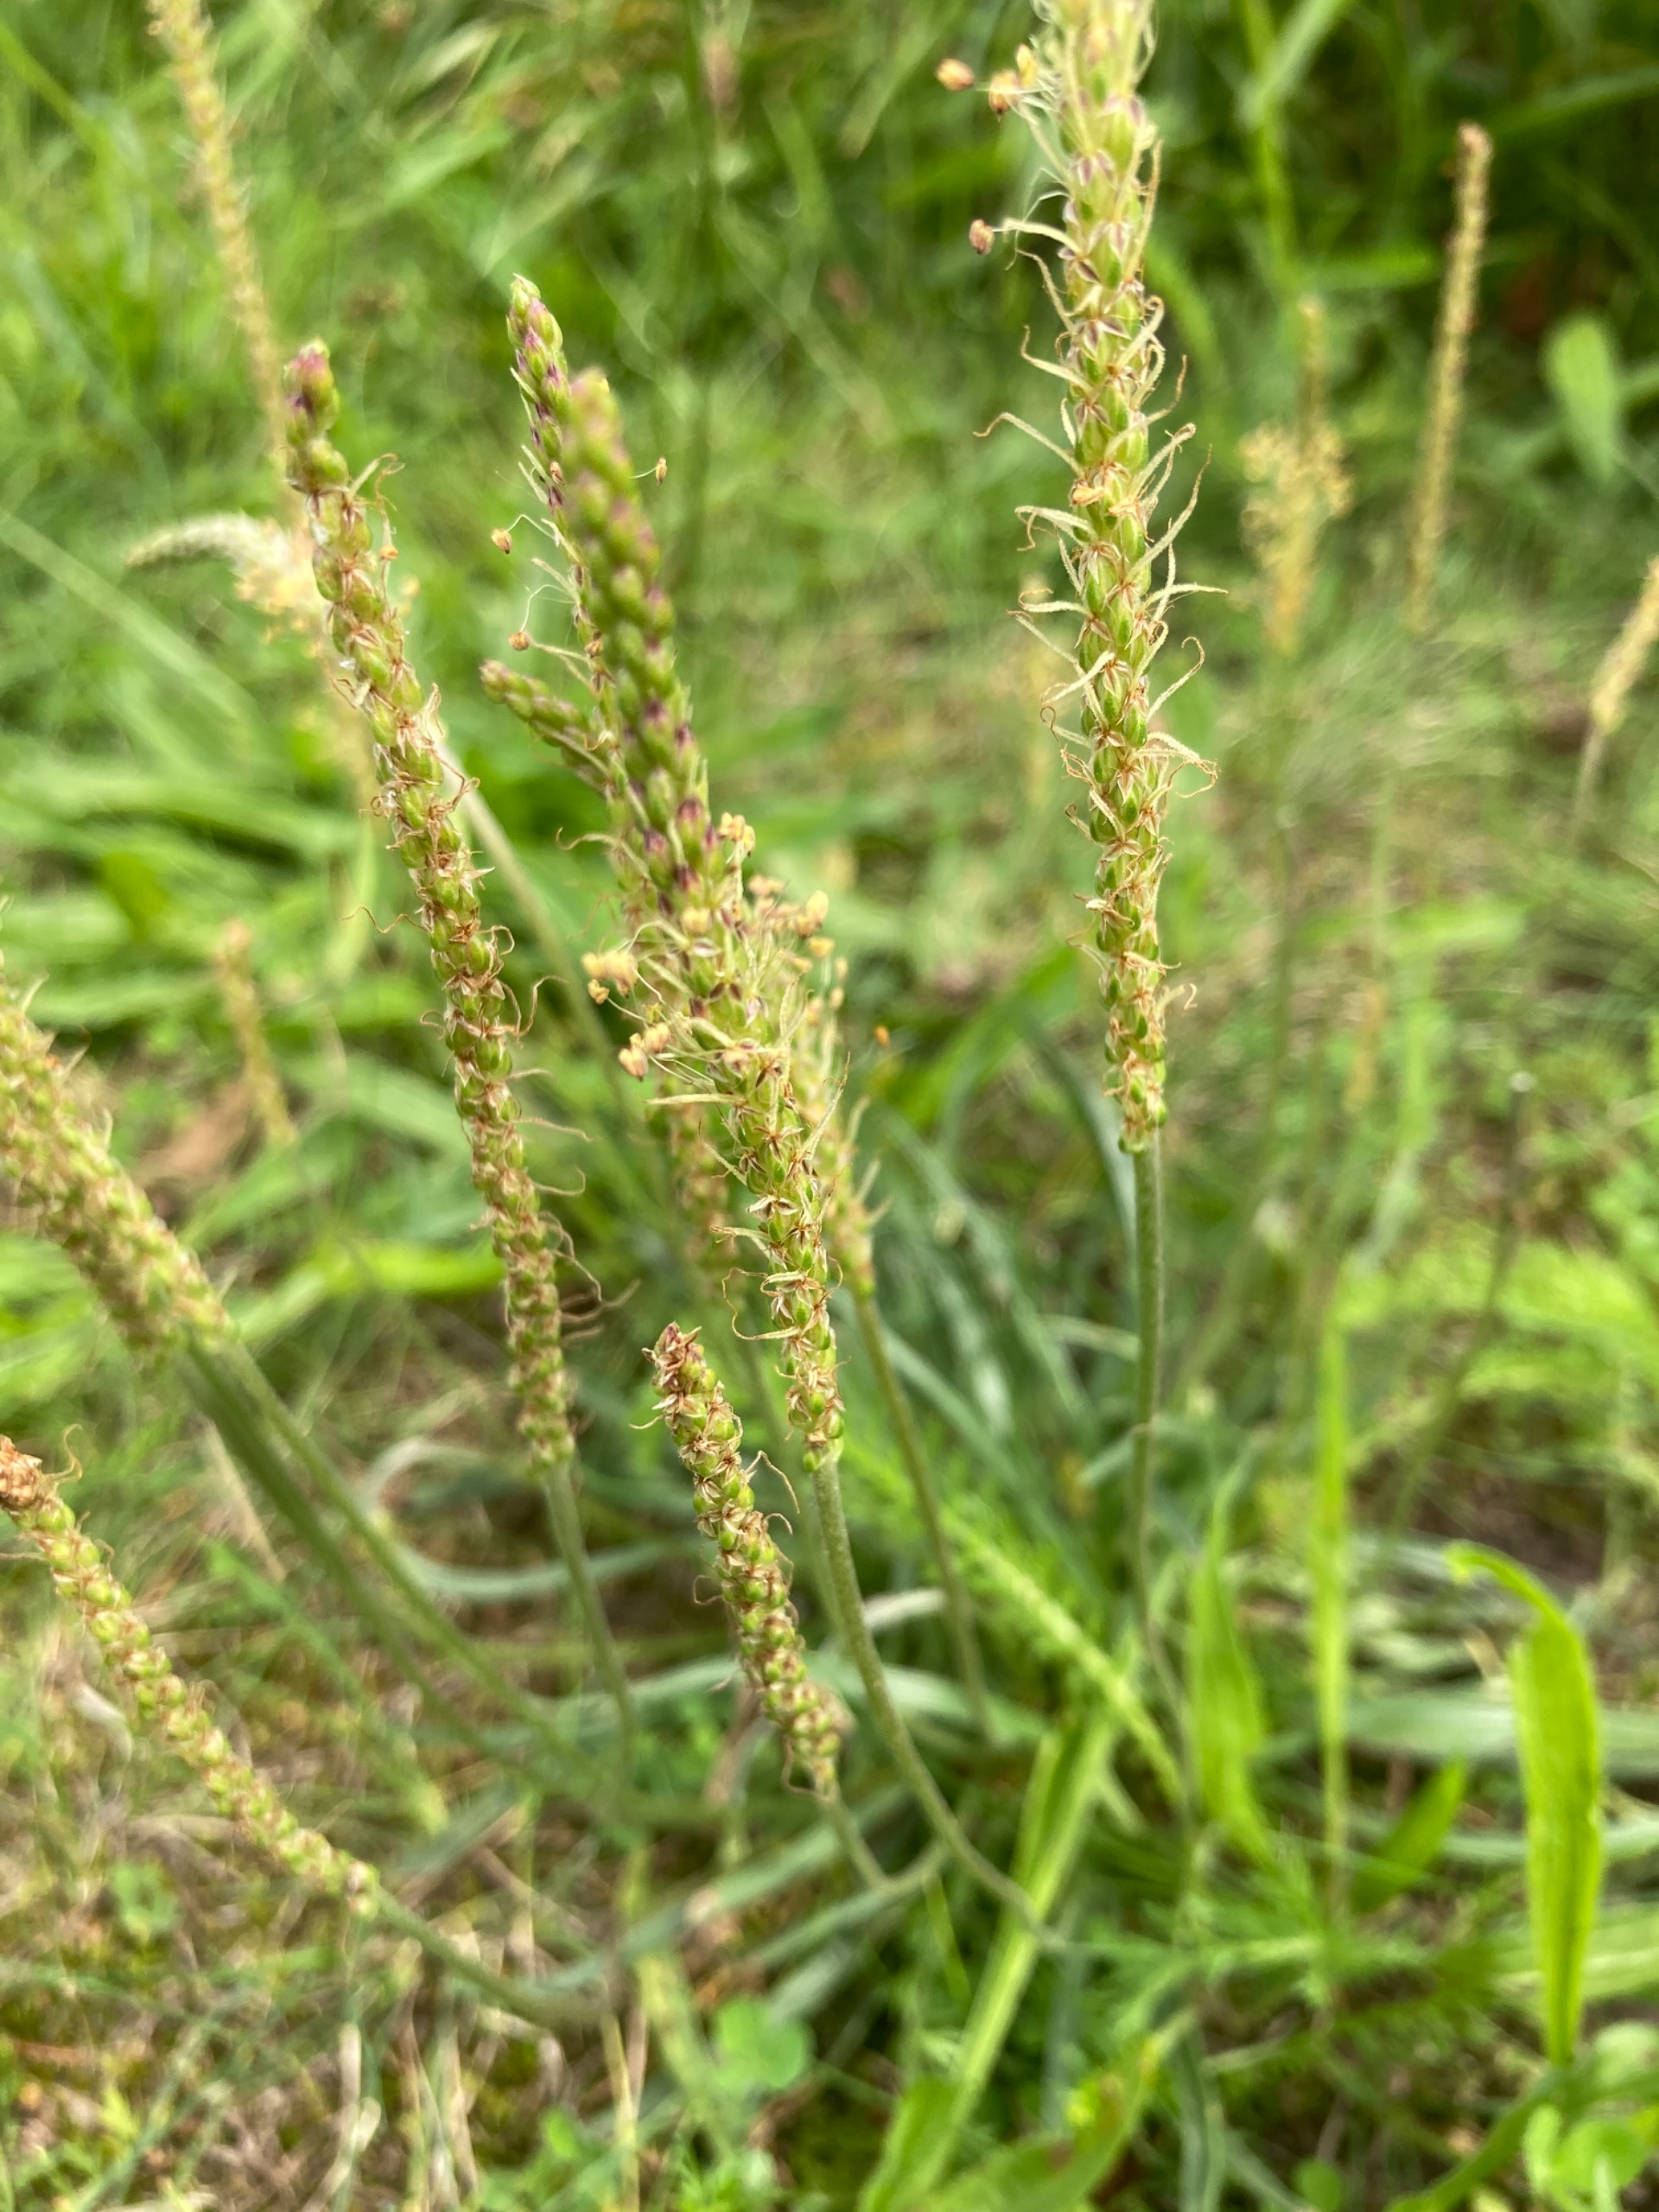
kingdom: Plantae
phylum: Tracheophyta
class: Magnoliopsida
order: Lamiales
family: Plantaginaceae
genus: Plantago
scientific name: Plantago maritima
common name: Strand-vejbred
